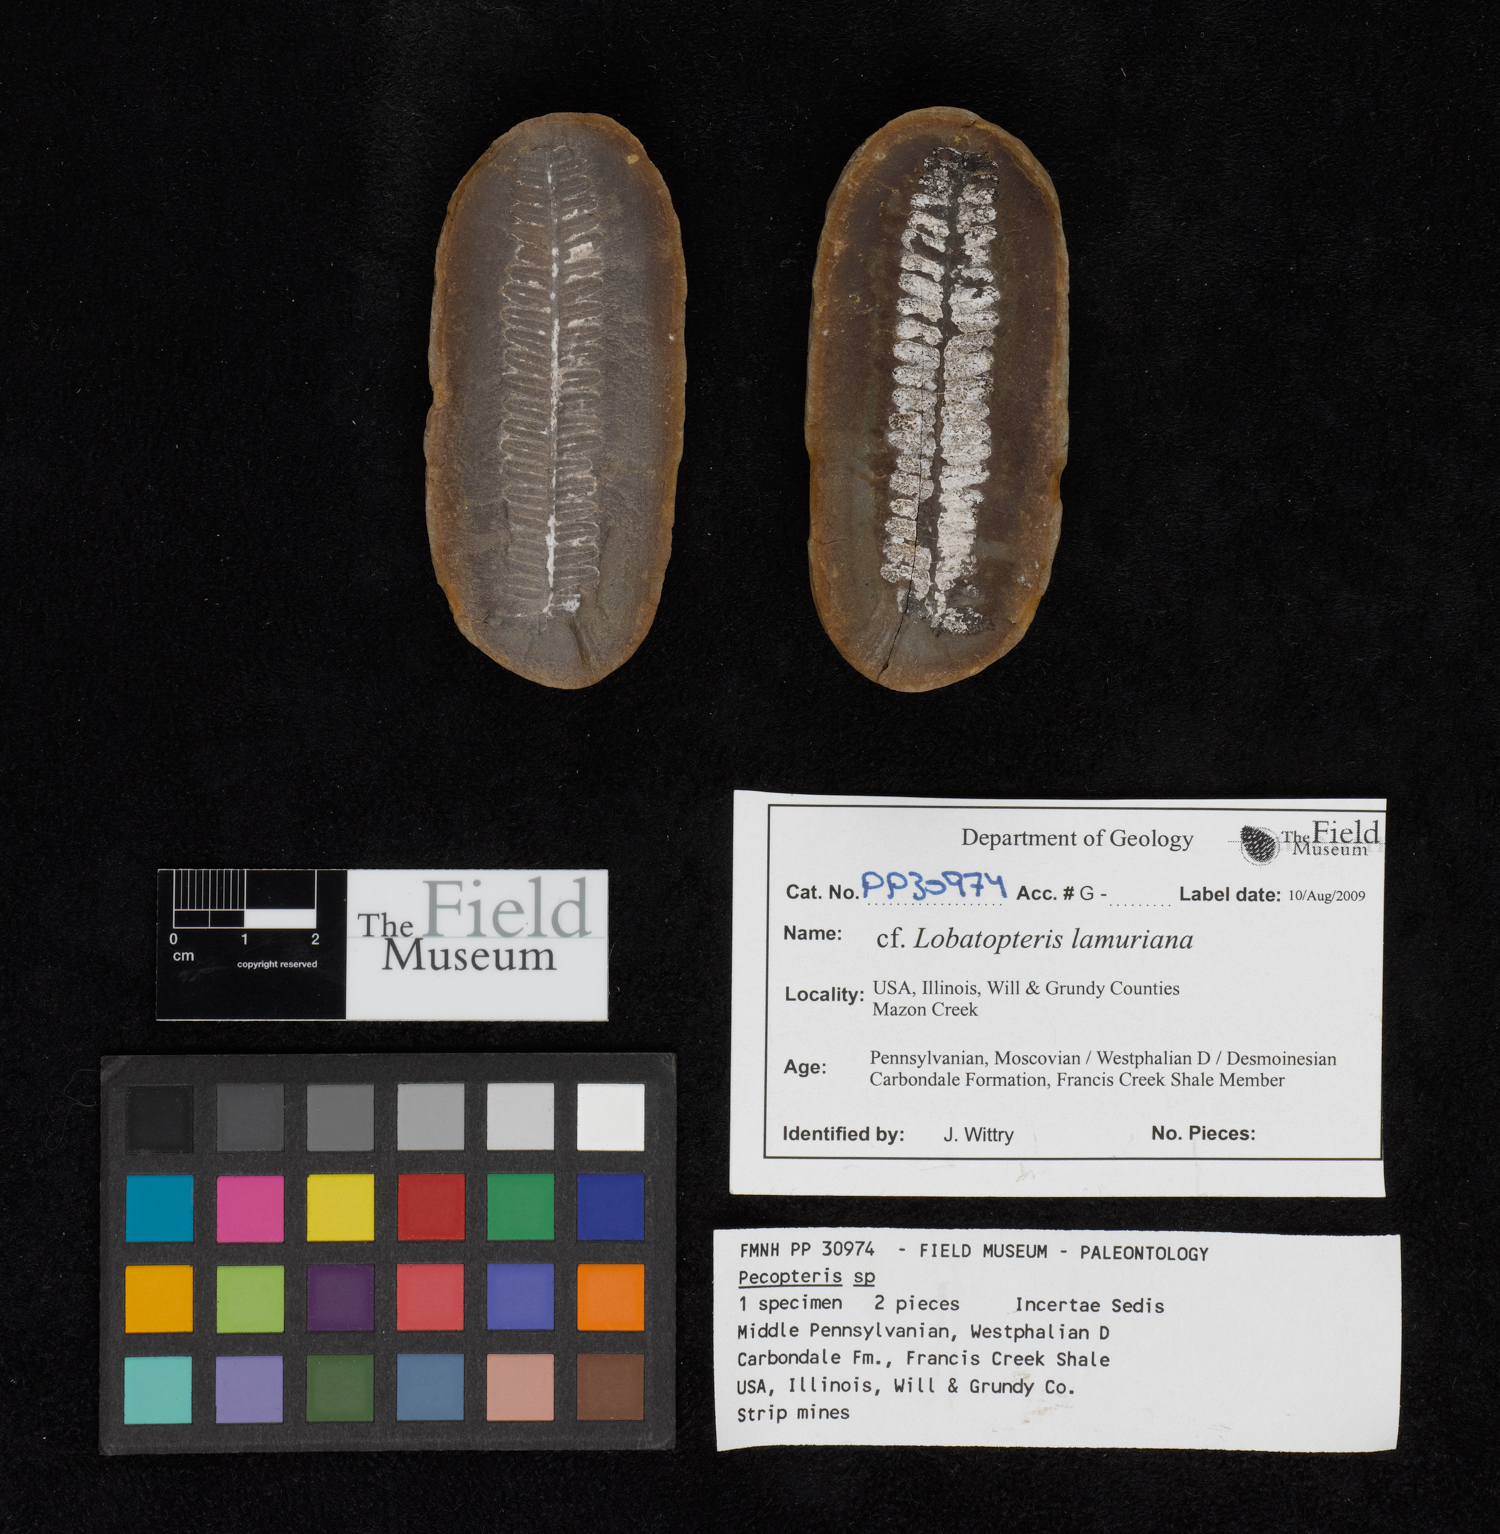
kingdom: Plantae
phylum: Tracheophyta
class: Polypodiopsida
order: Marattiales
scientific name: Marattiales
